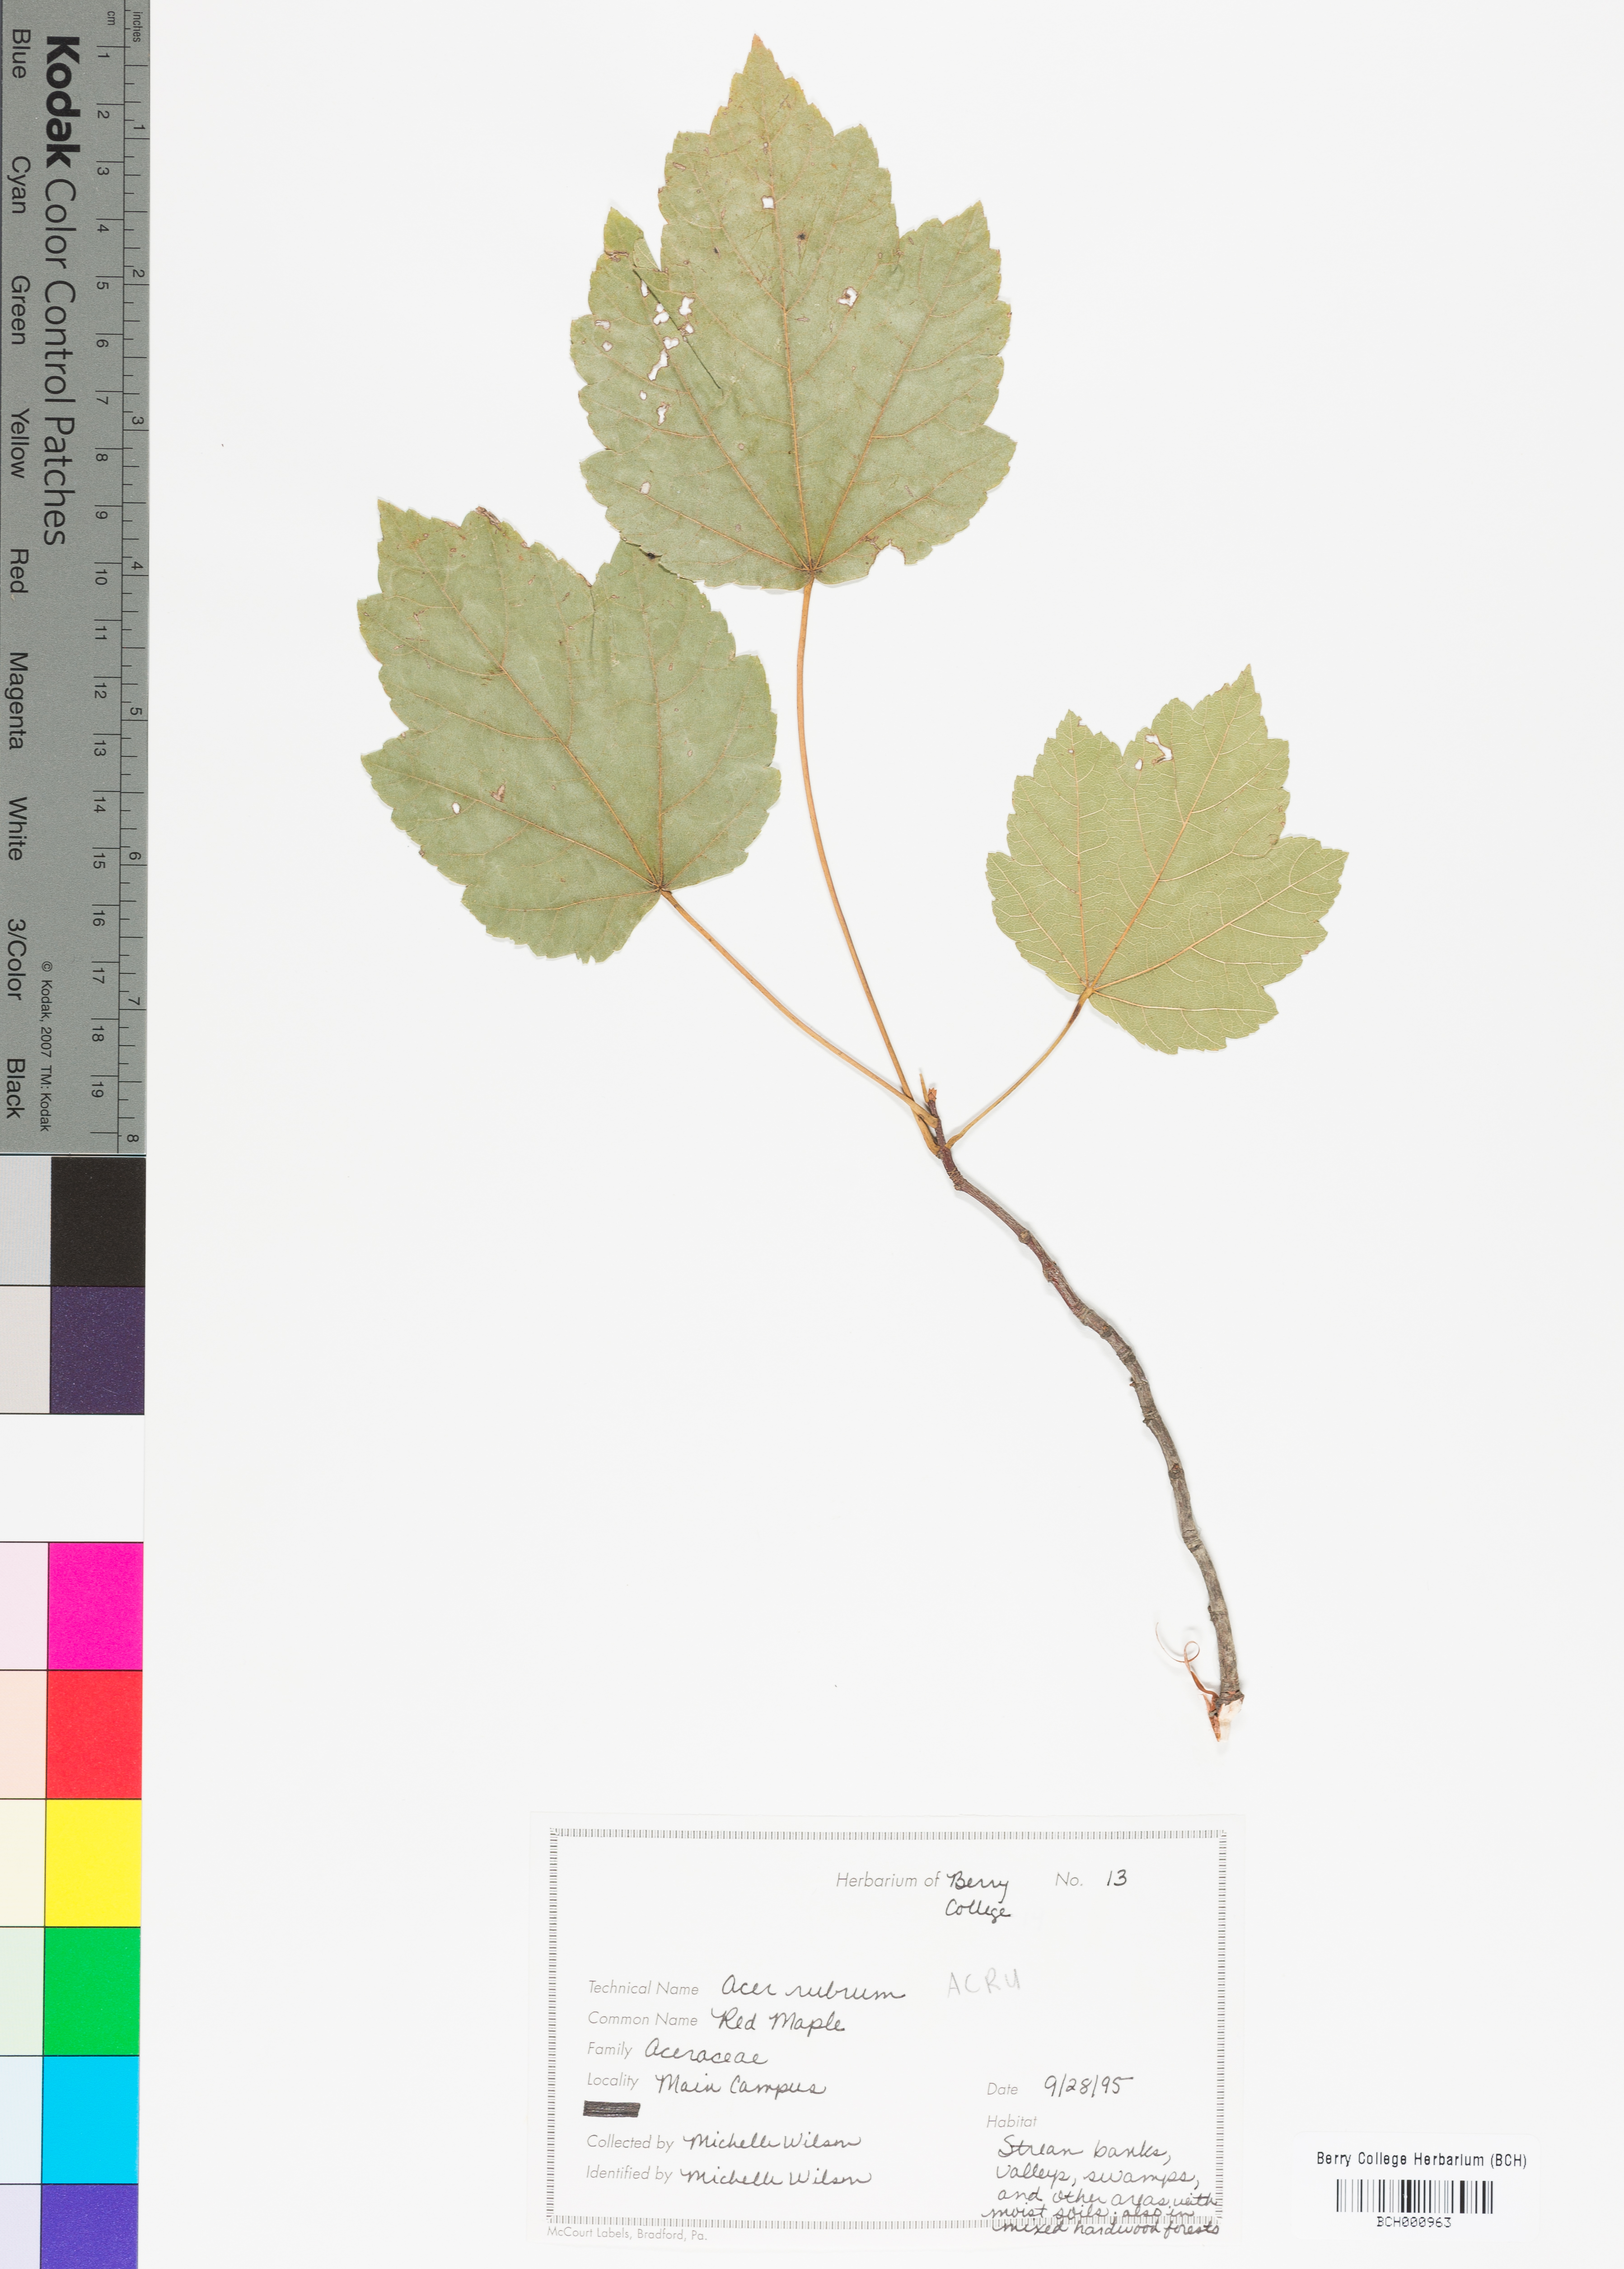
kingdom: Plantae
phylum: Tracheophyta
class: Magnoliopsida
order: Sapindales
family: Sapindaceae
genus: Acer
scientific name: Acer rubrum
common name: Red maple
